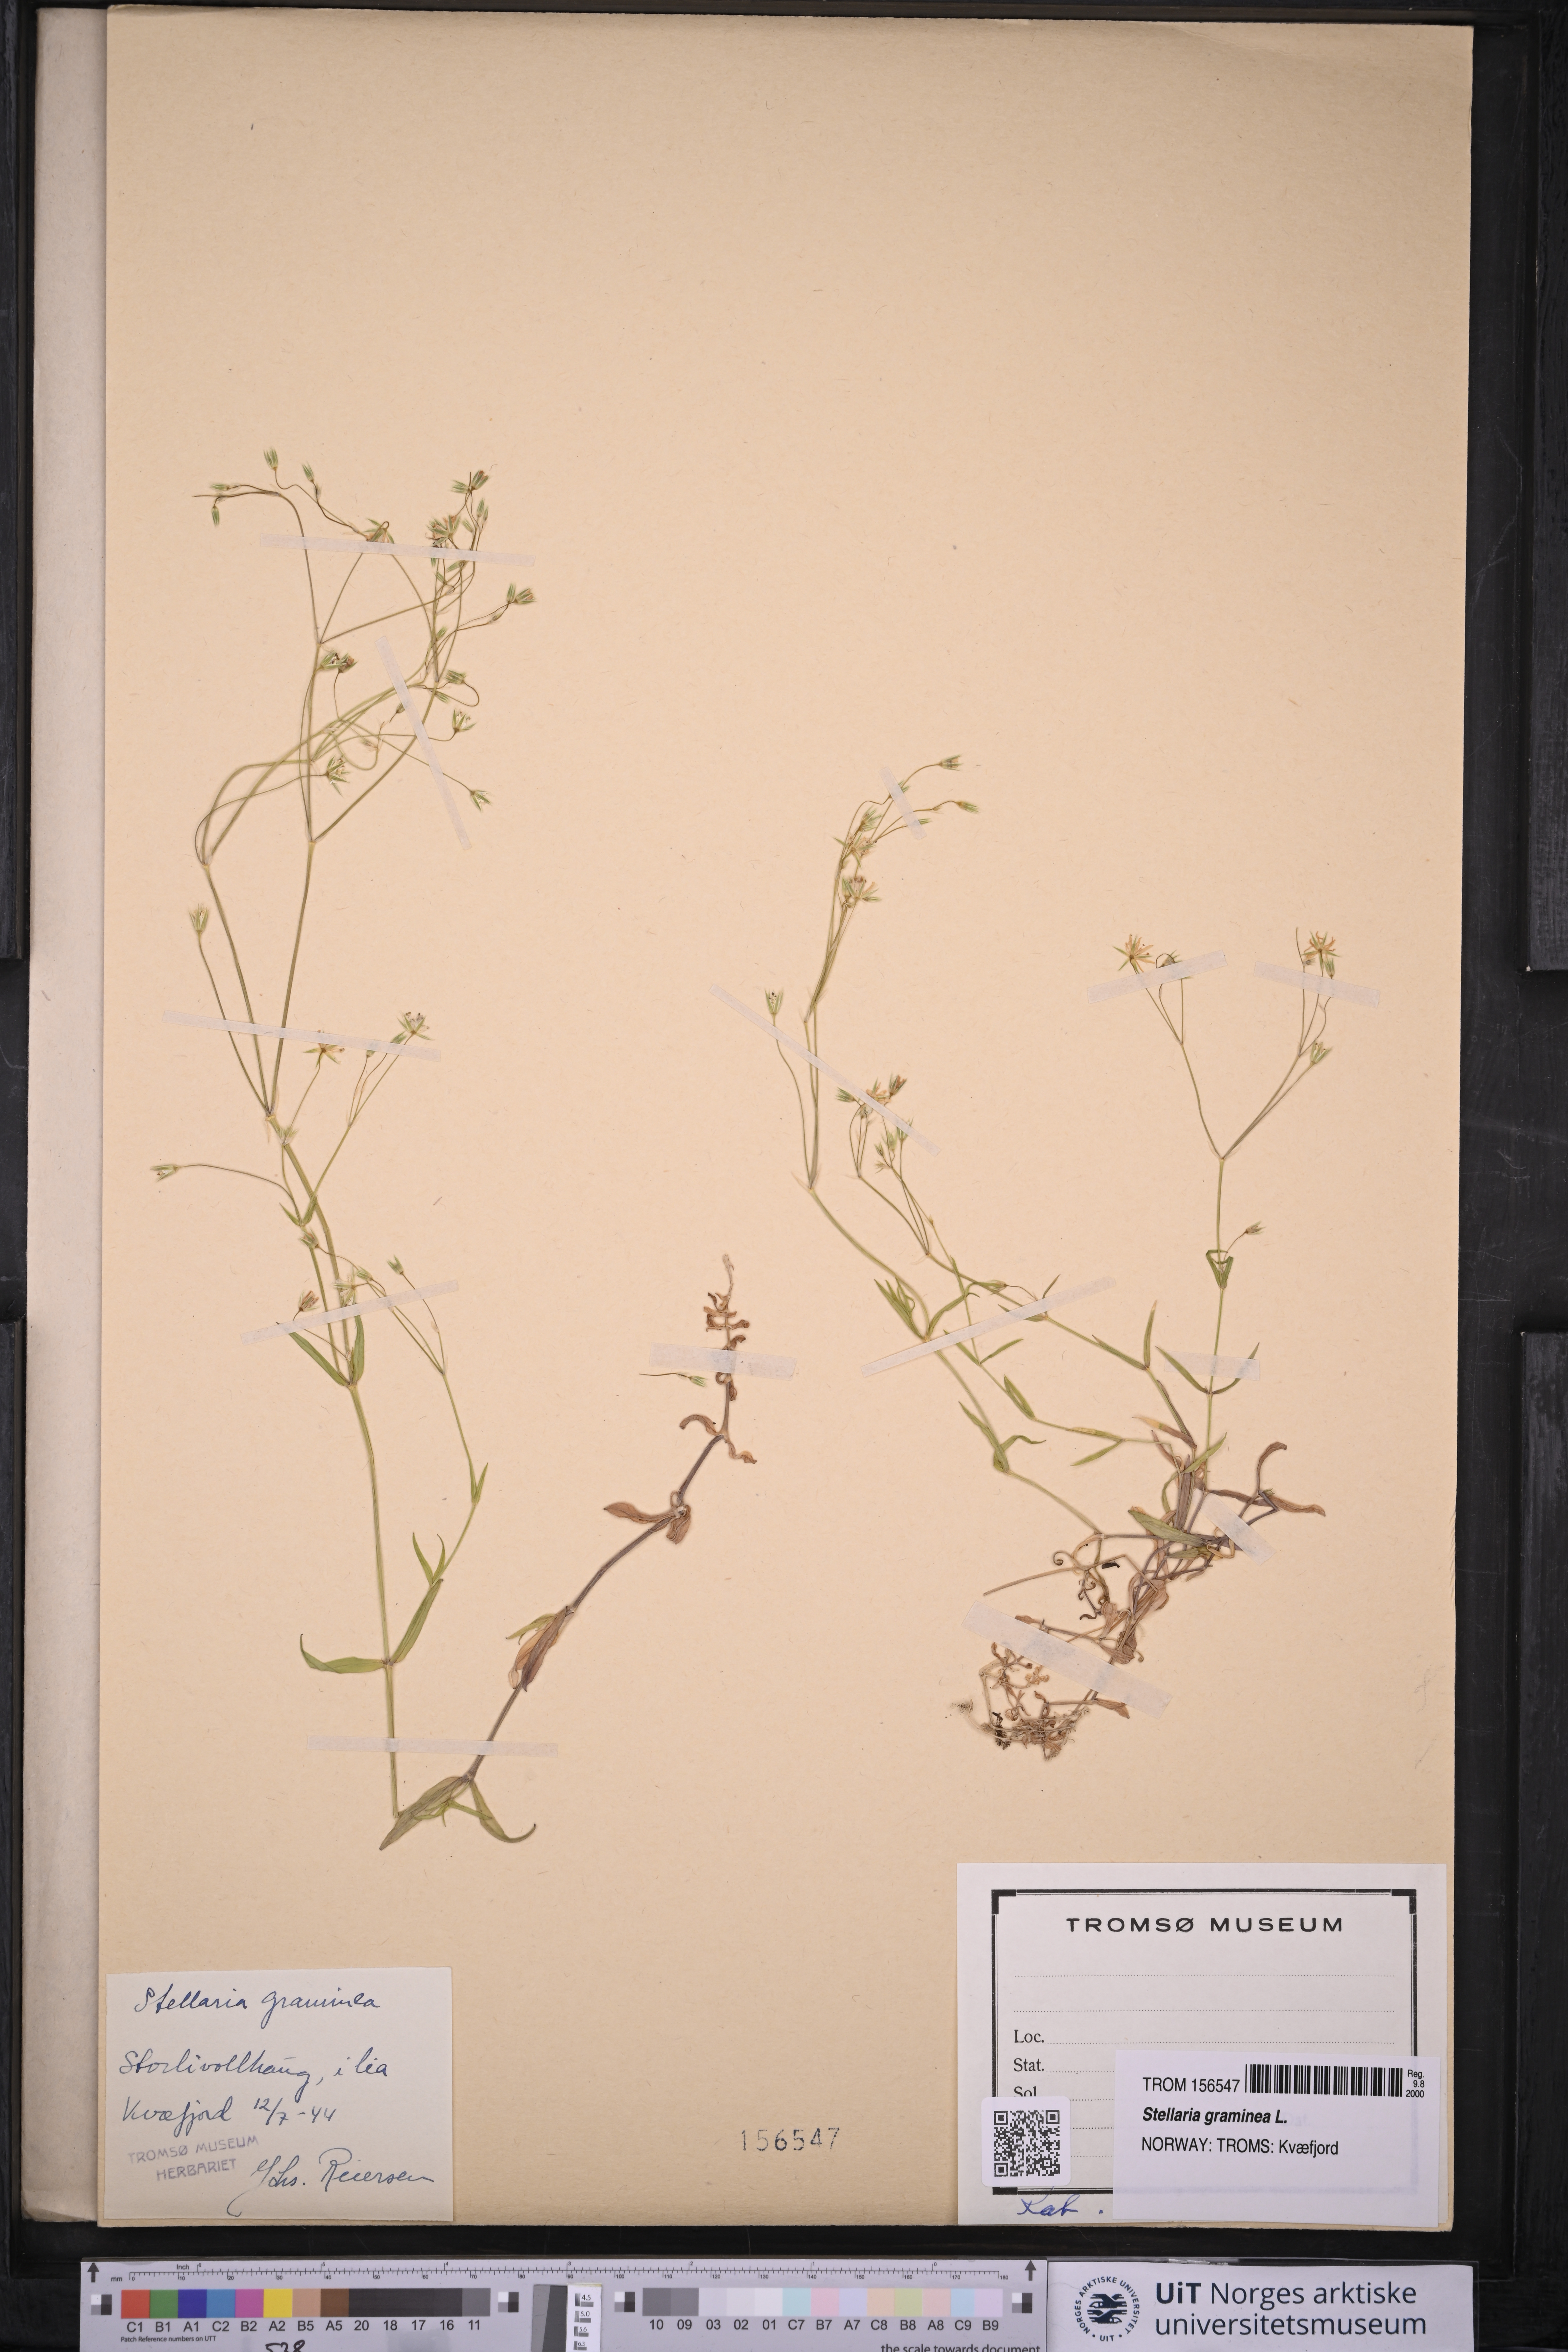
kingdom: Plantae
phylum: Tracheophyta
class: Magnoliopsida
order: Caryophyllales
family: Caryophyllaceae
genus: Stellaria
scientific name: Stellaria graminea
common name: Grass-like starwort
